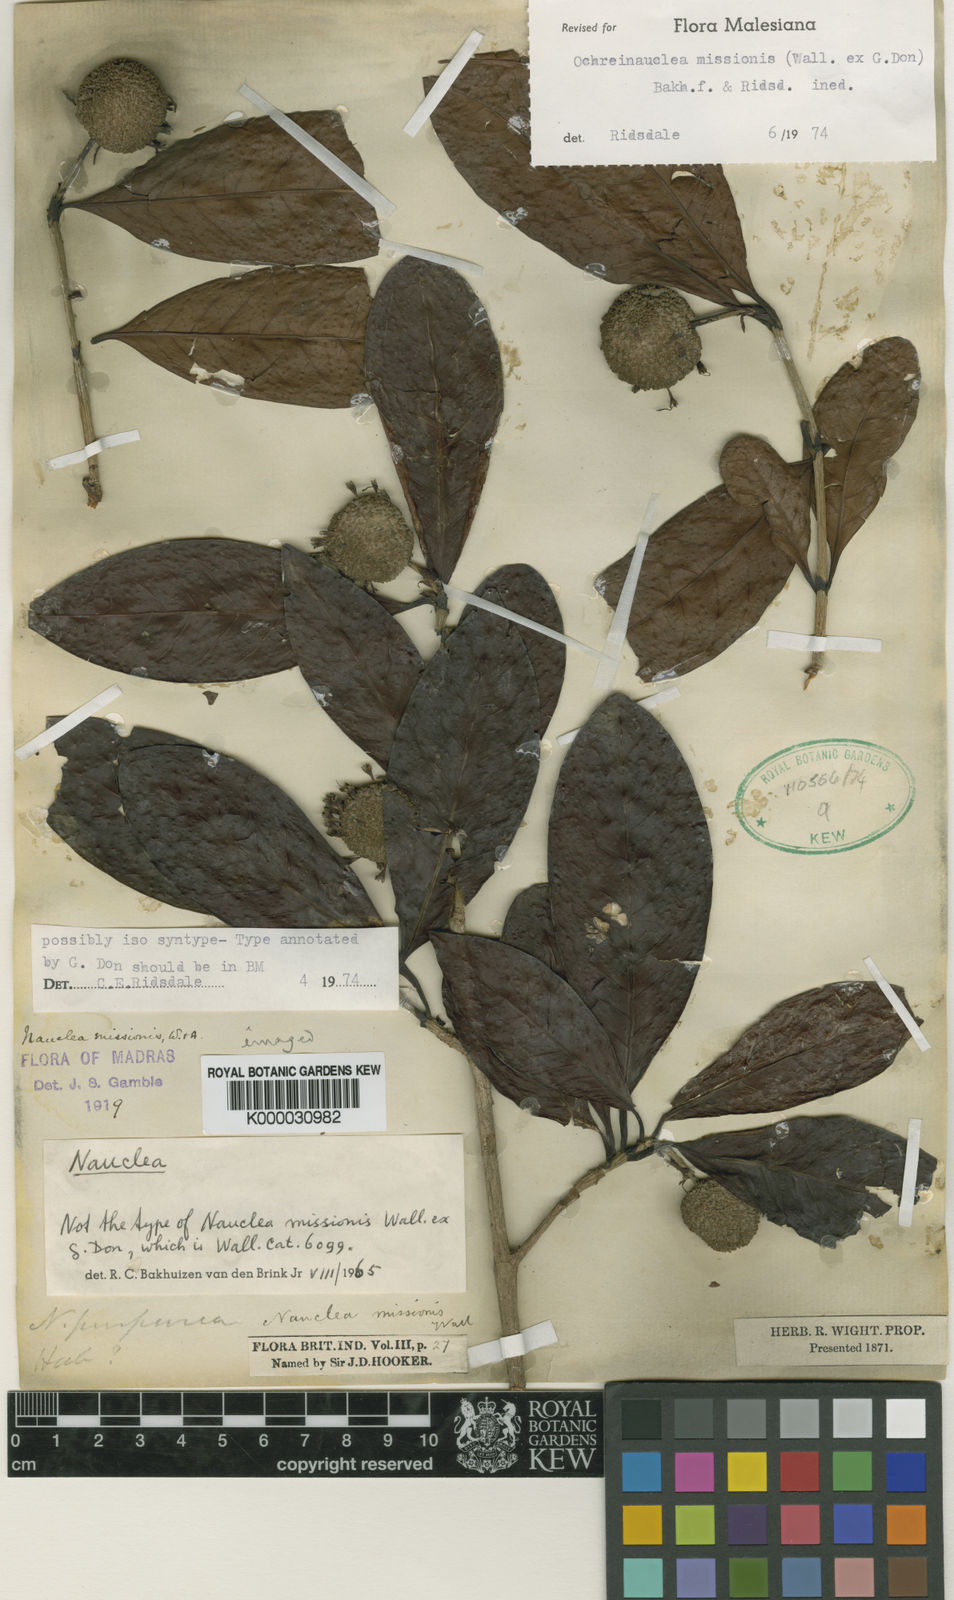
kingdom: Plantae
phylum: Tracheophyta
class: Magnoliopsida
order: Gentianales
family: Rubiaceae
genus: Ochreinauclea
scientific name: Ochreinauclea missionis
